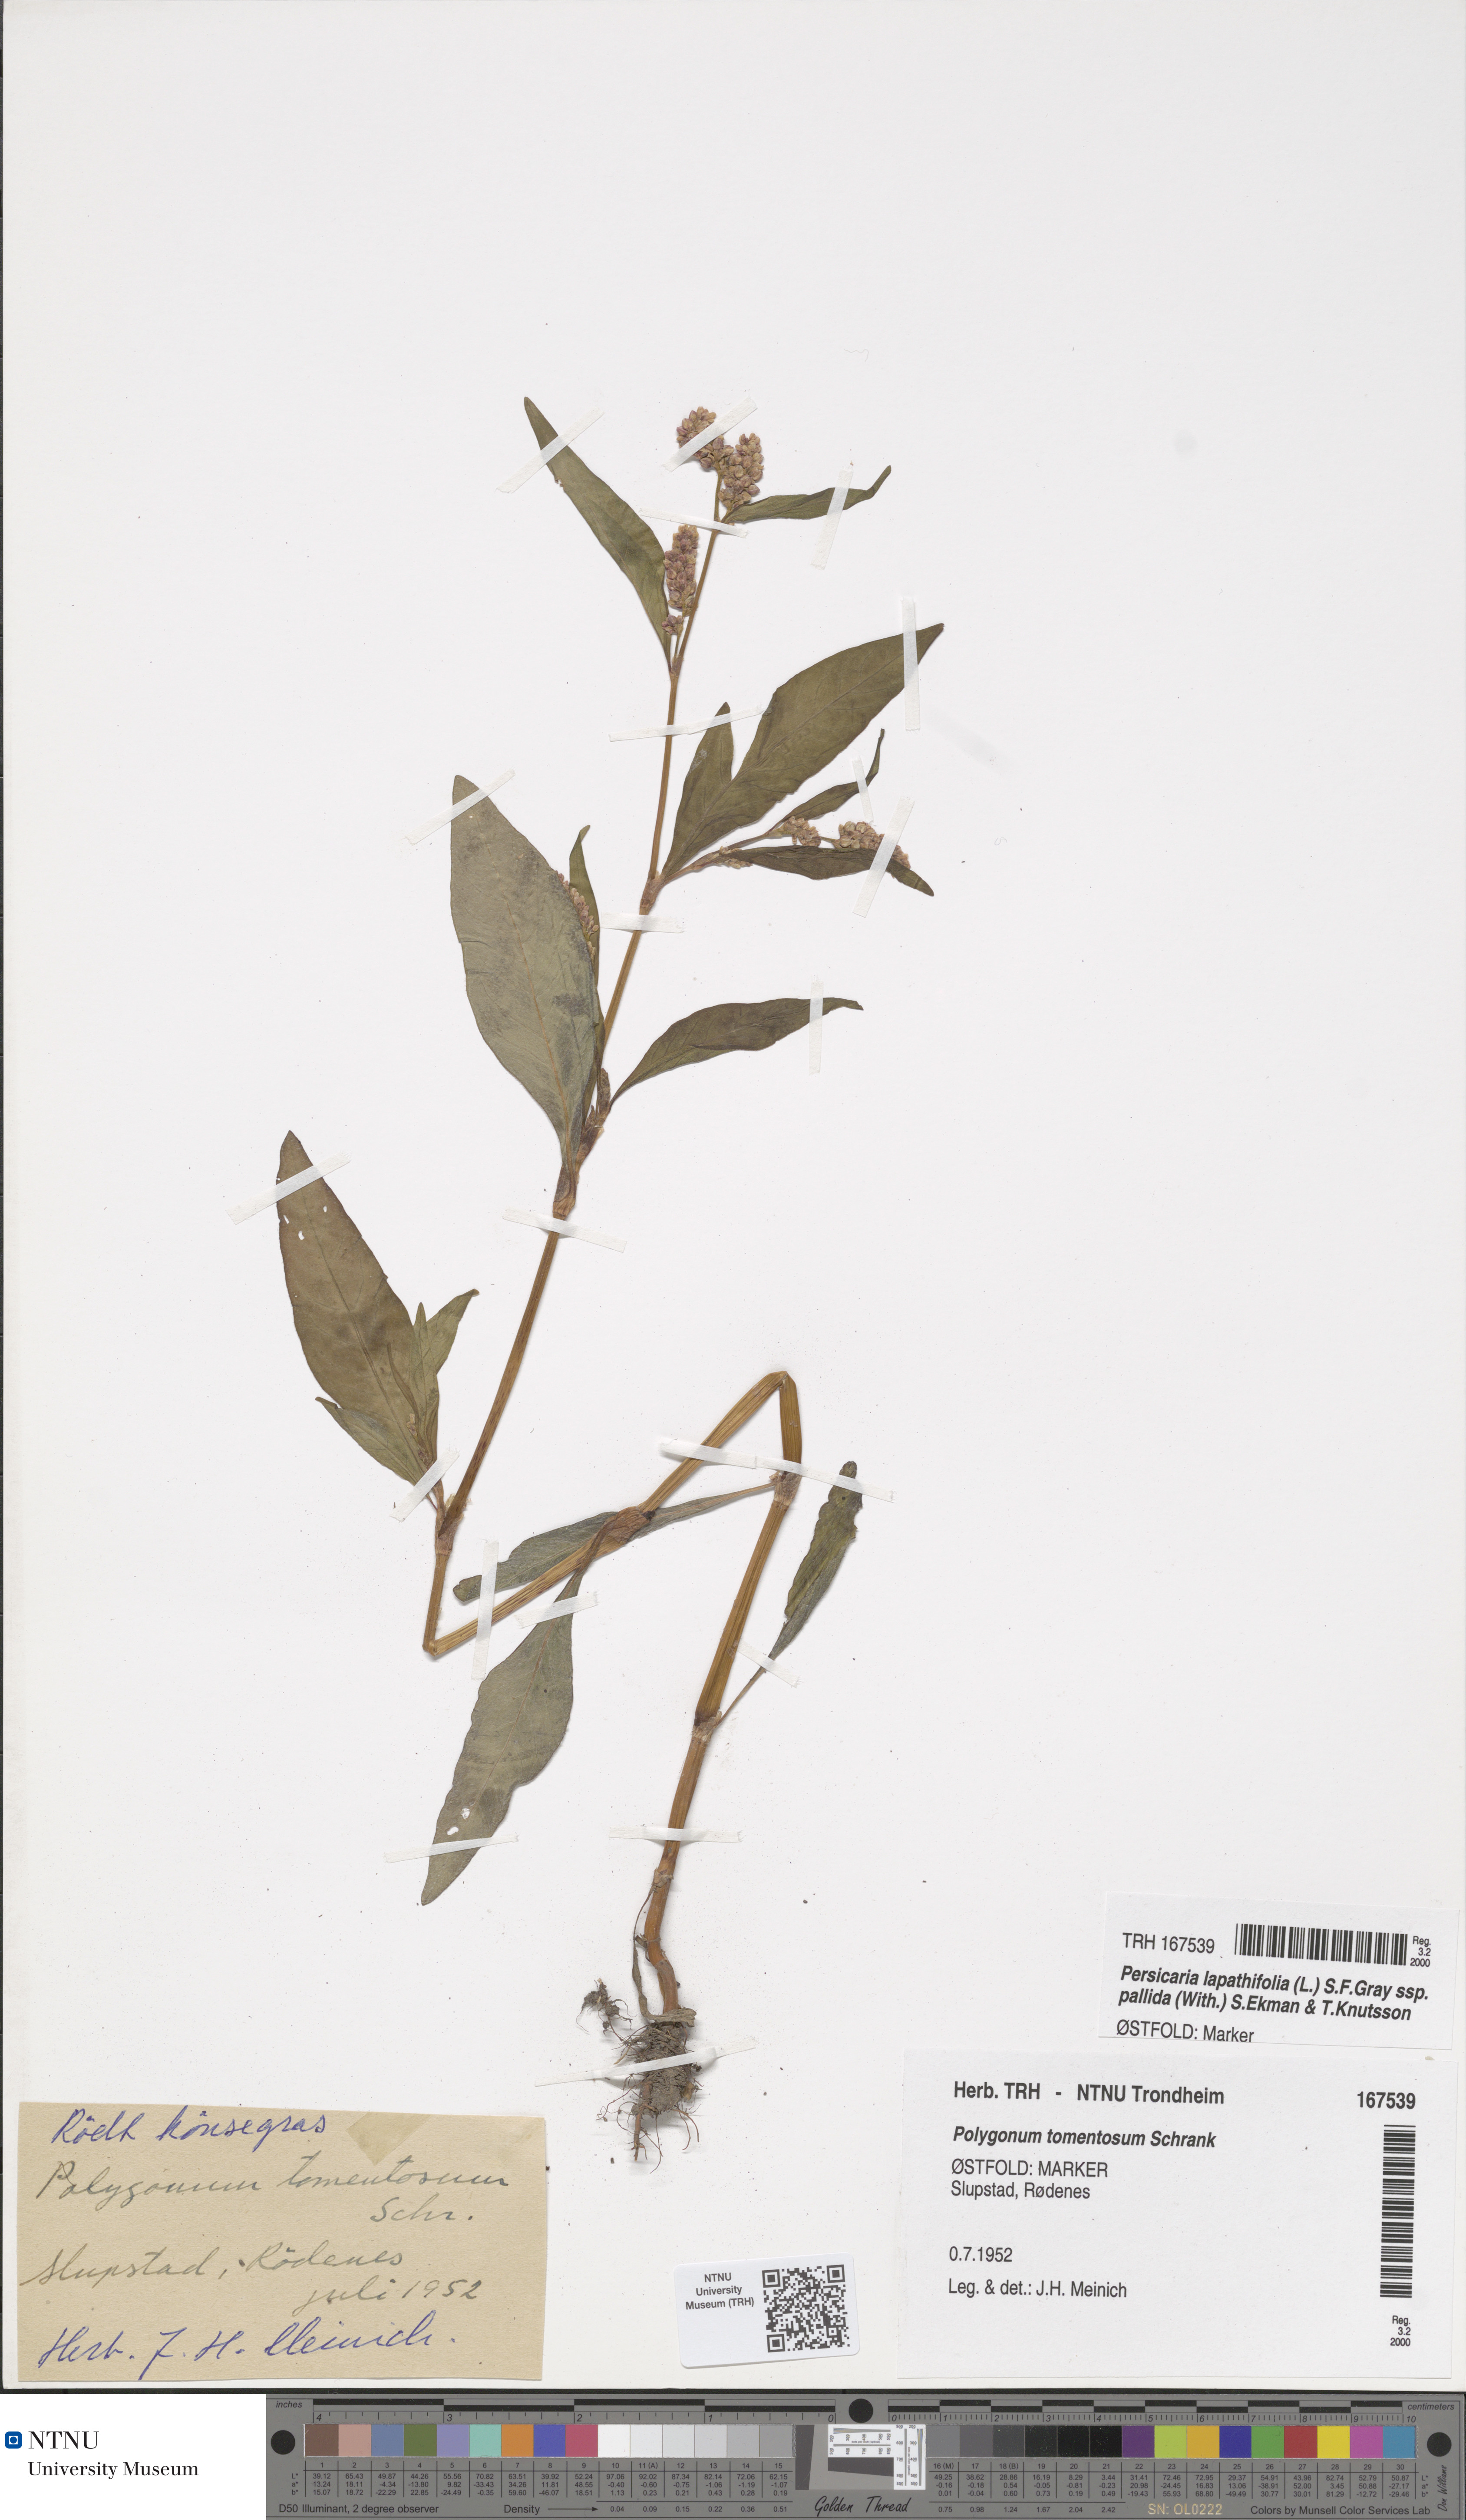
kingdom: Plantae
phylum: Tracheophyta
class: Magnoliopsida
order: Caryophyllales
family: Polygonaceae
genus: Persicaria
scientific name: Persicaria lapathifolia
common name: Curlytop knotweed
